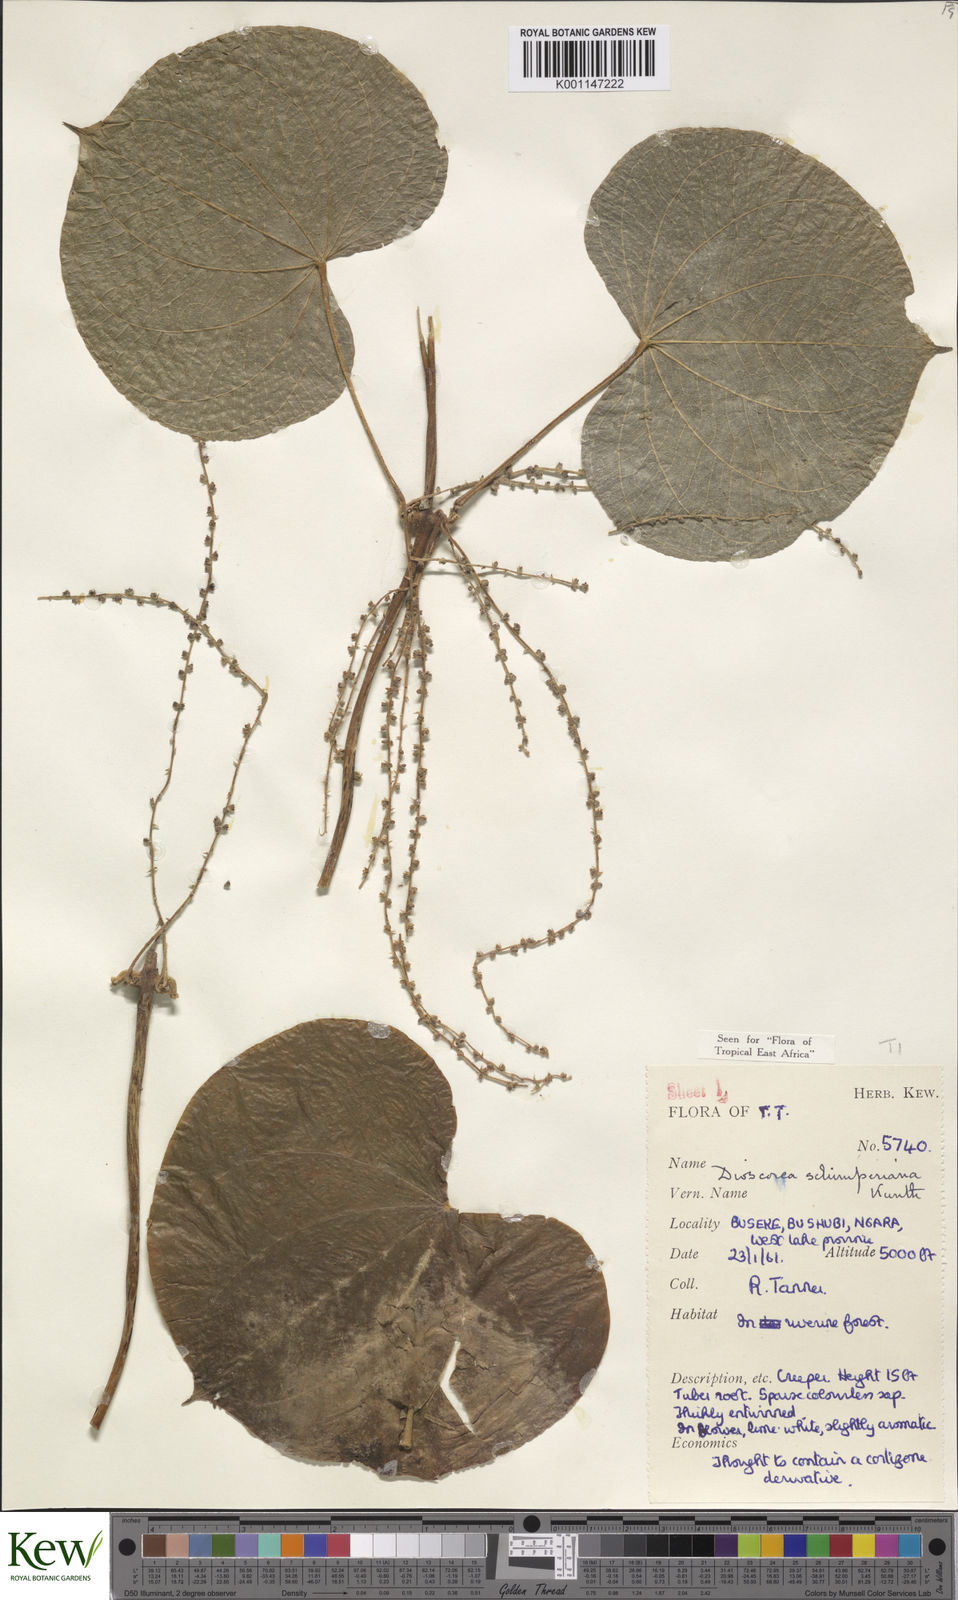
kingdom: Plantae
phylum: Tracheophyta
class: Liliopsida
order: Dioscoreales
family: Dioscoreaceae
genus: Dioscorea
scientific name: Dioscorea schimperiana
